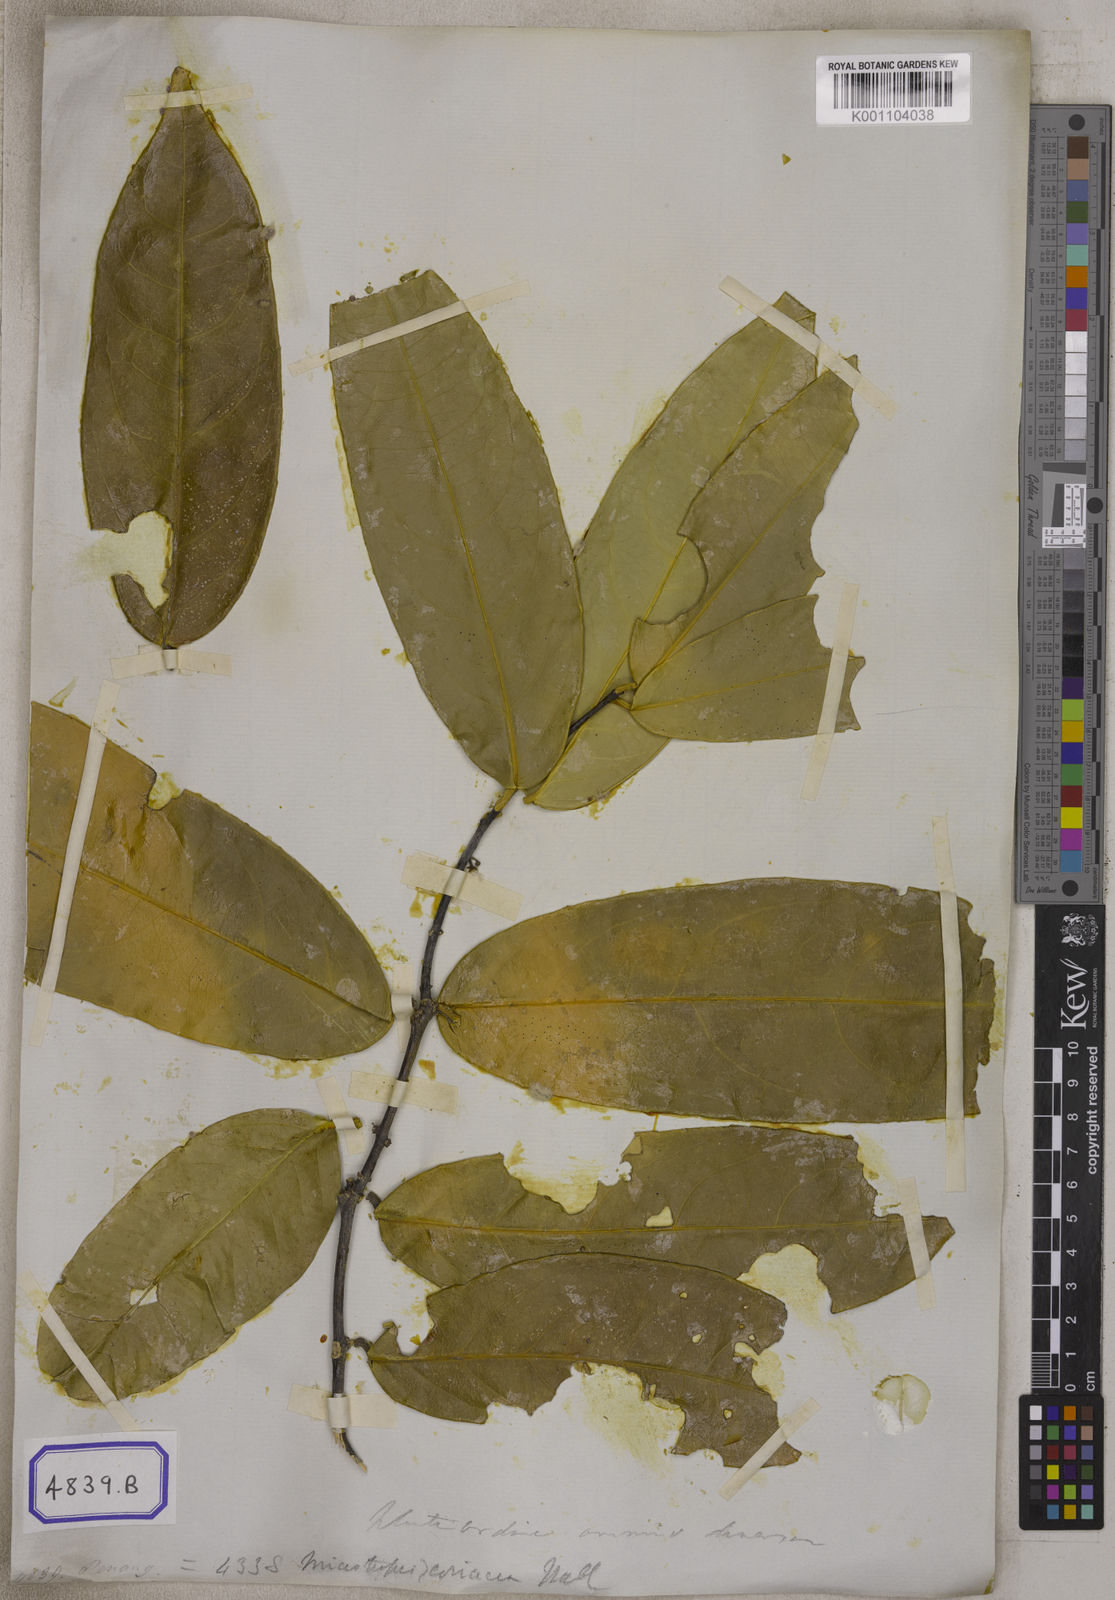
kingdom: Plantae
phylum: Tracheophyta
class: Magnoliopsida
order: Malpighiales
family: Clusiaceae
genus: Garcinia
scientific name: Garcinia dulcis
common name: Eggtree
